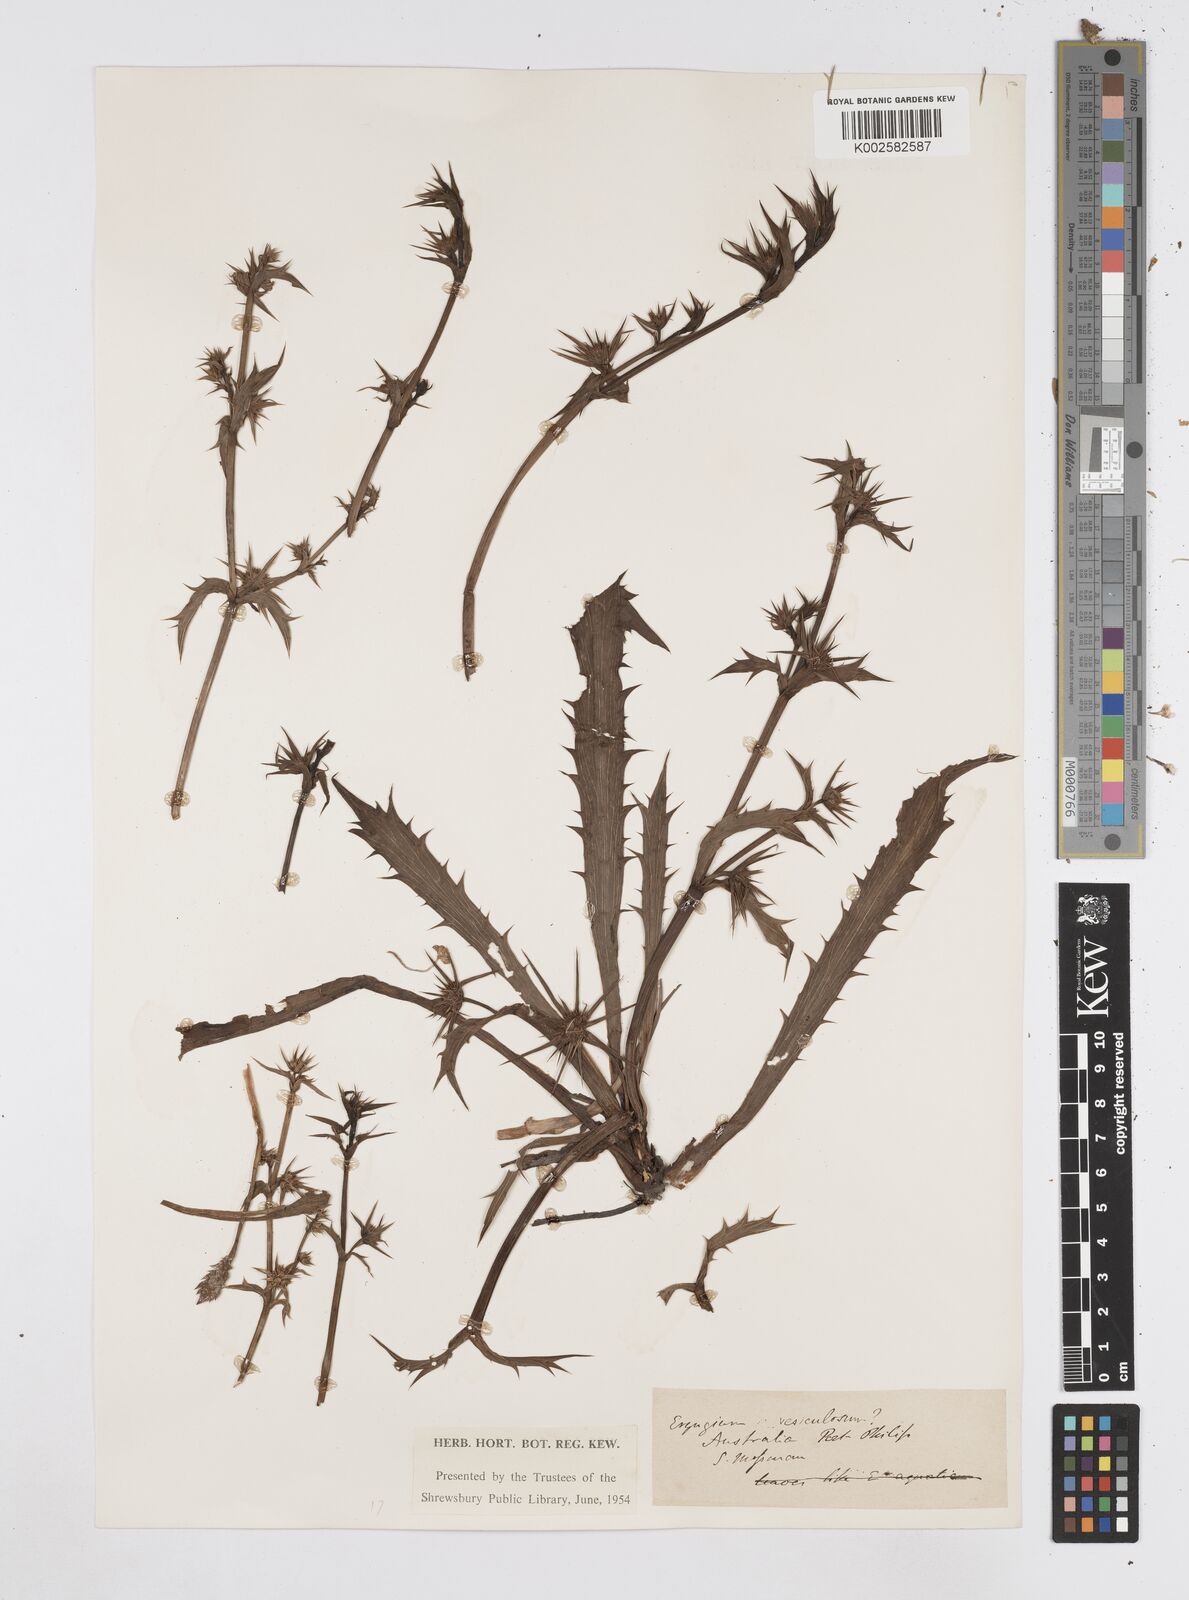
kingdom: Plantae
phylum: Tracheophyta
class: Magnoliopsida
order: Apiales
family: Apiaceae
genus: Eryngium
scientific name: Eryngium vesiculosum
